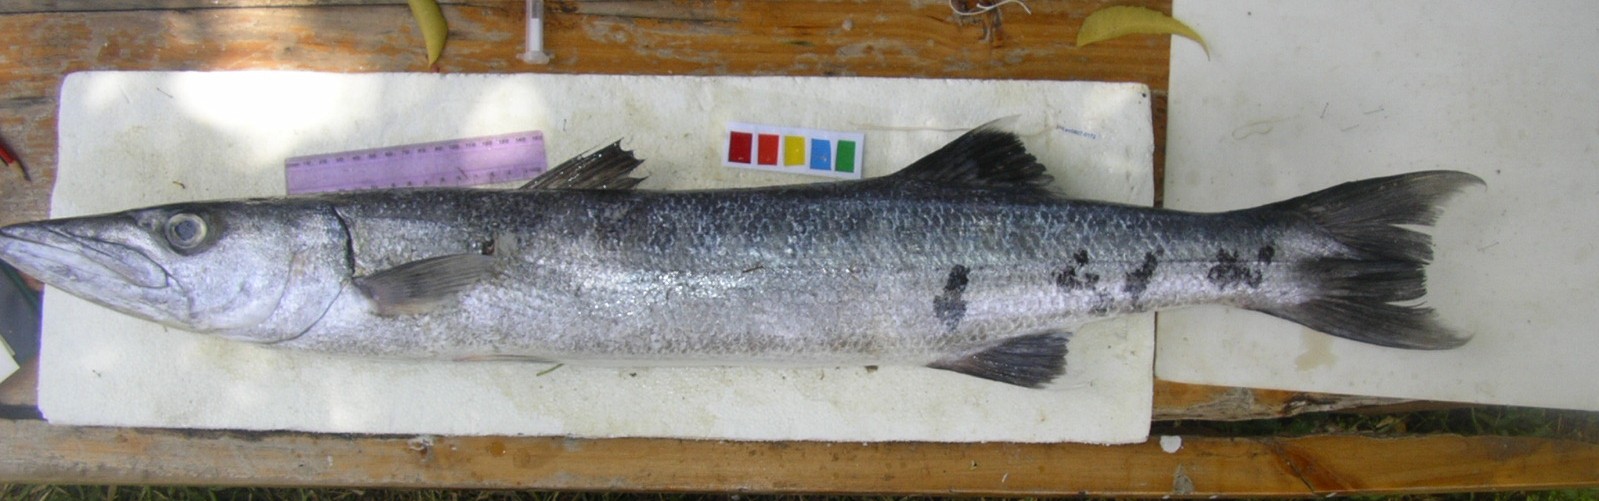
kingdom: Animalia
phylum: Chordata
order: Perciformes
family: Sphyraenidae
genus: Sphyraena
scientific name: Sphyraena barracuda
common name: Great barracuda
